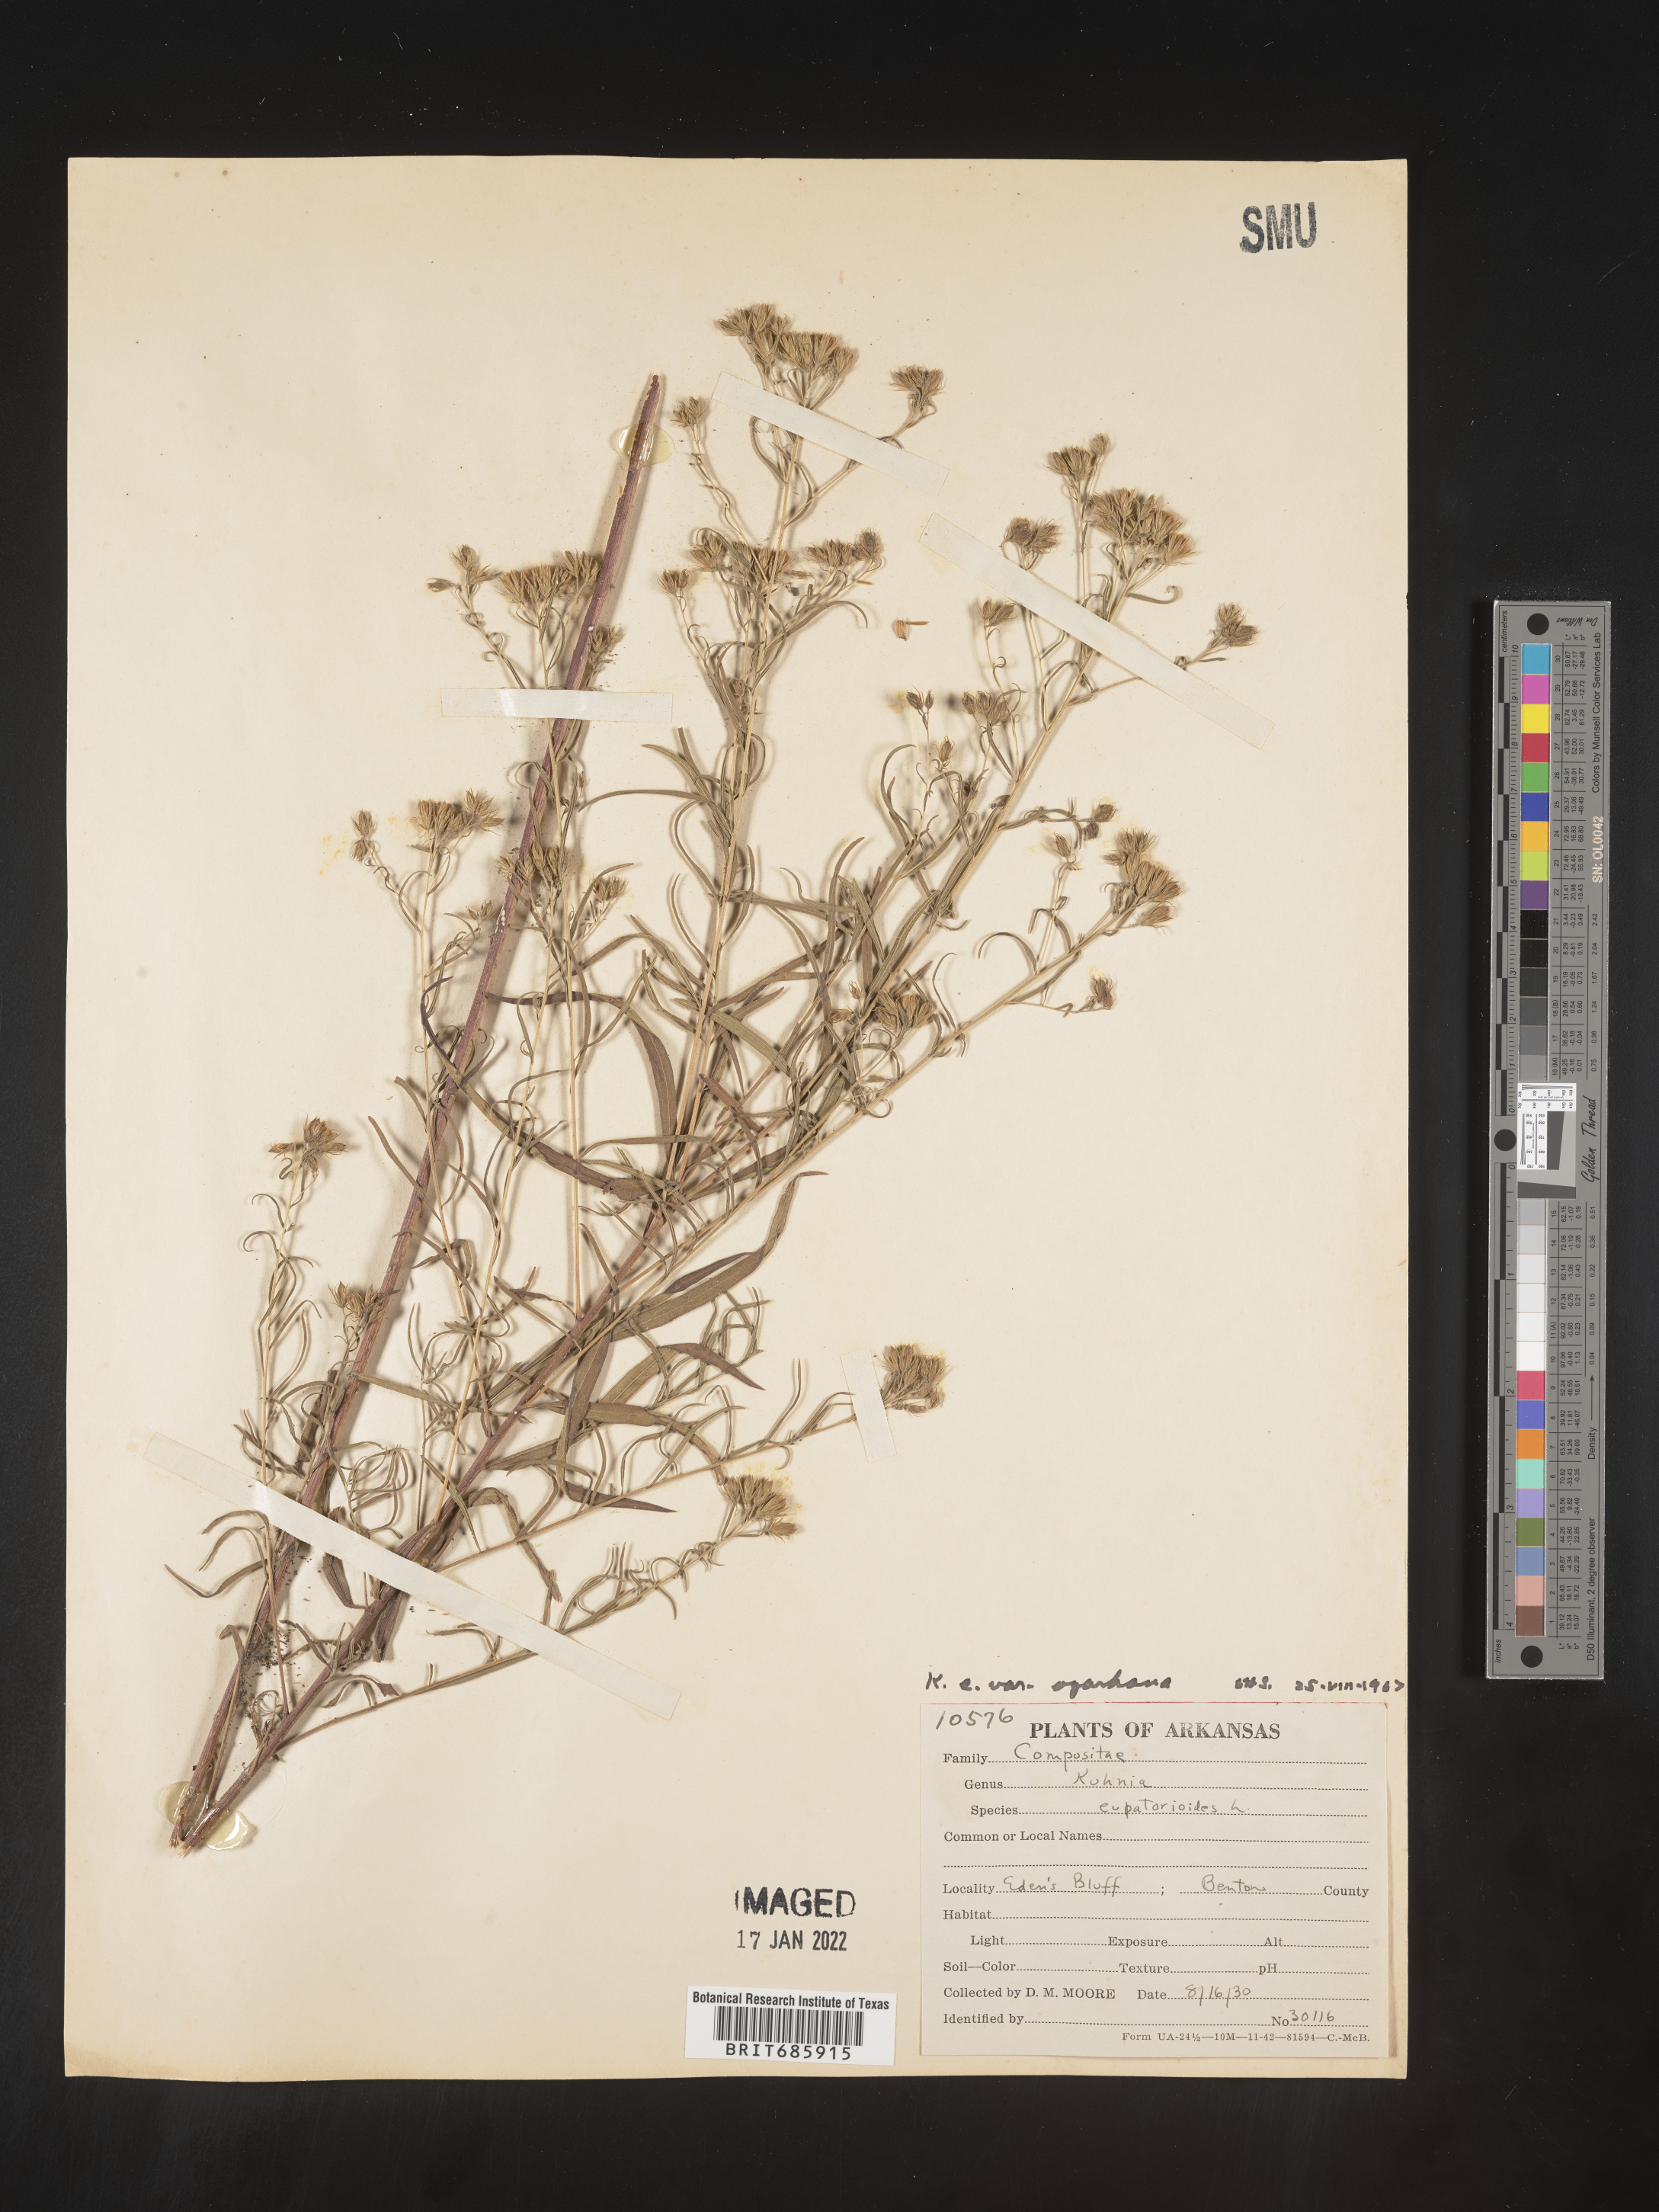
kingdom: Plantae
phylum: Tracheophyta
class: Magnoliopsida
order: Asterales
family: Asteraceae
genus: Brickellia
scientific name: Brickellia ozarkana
